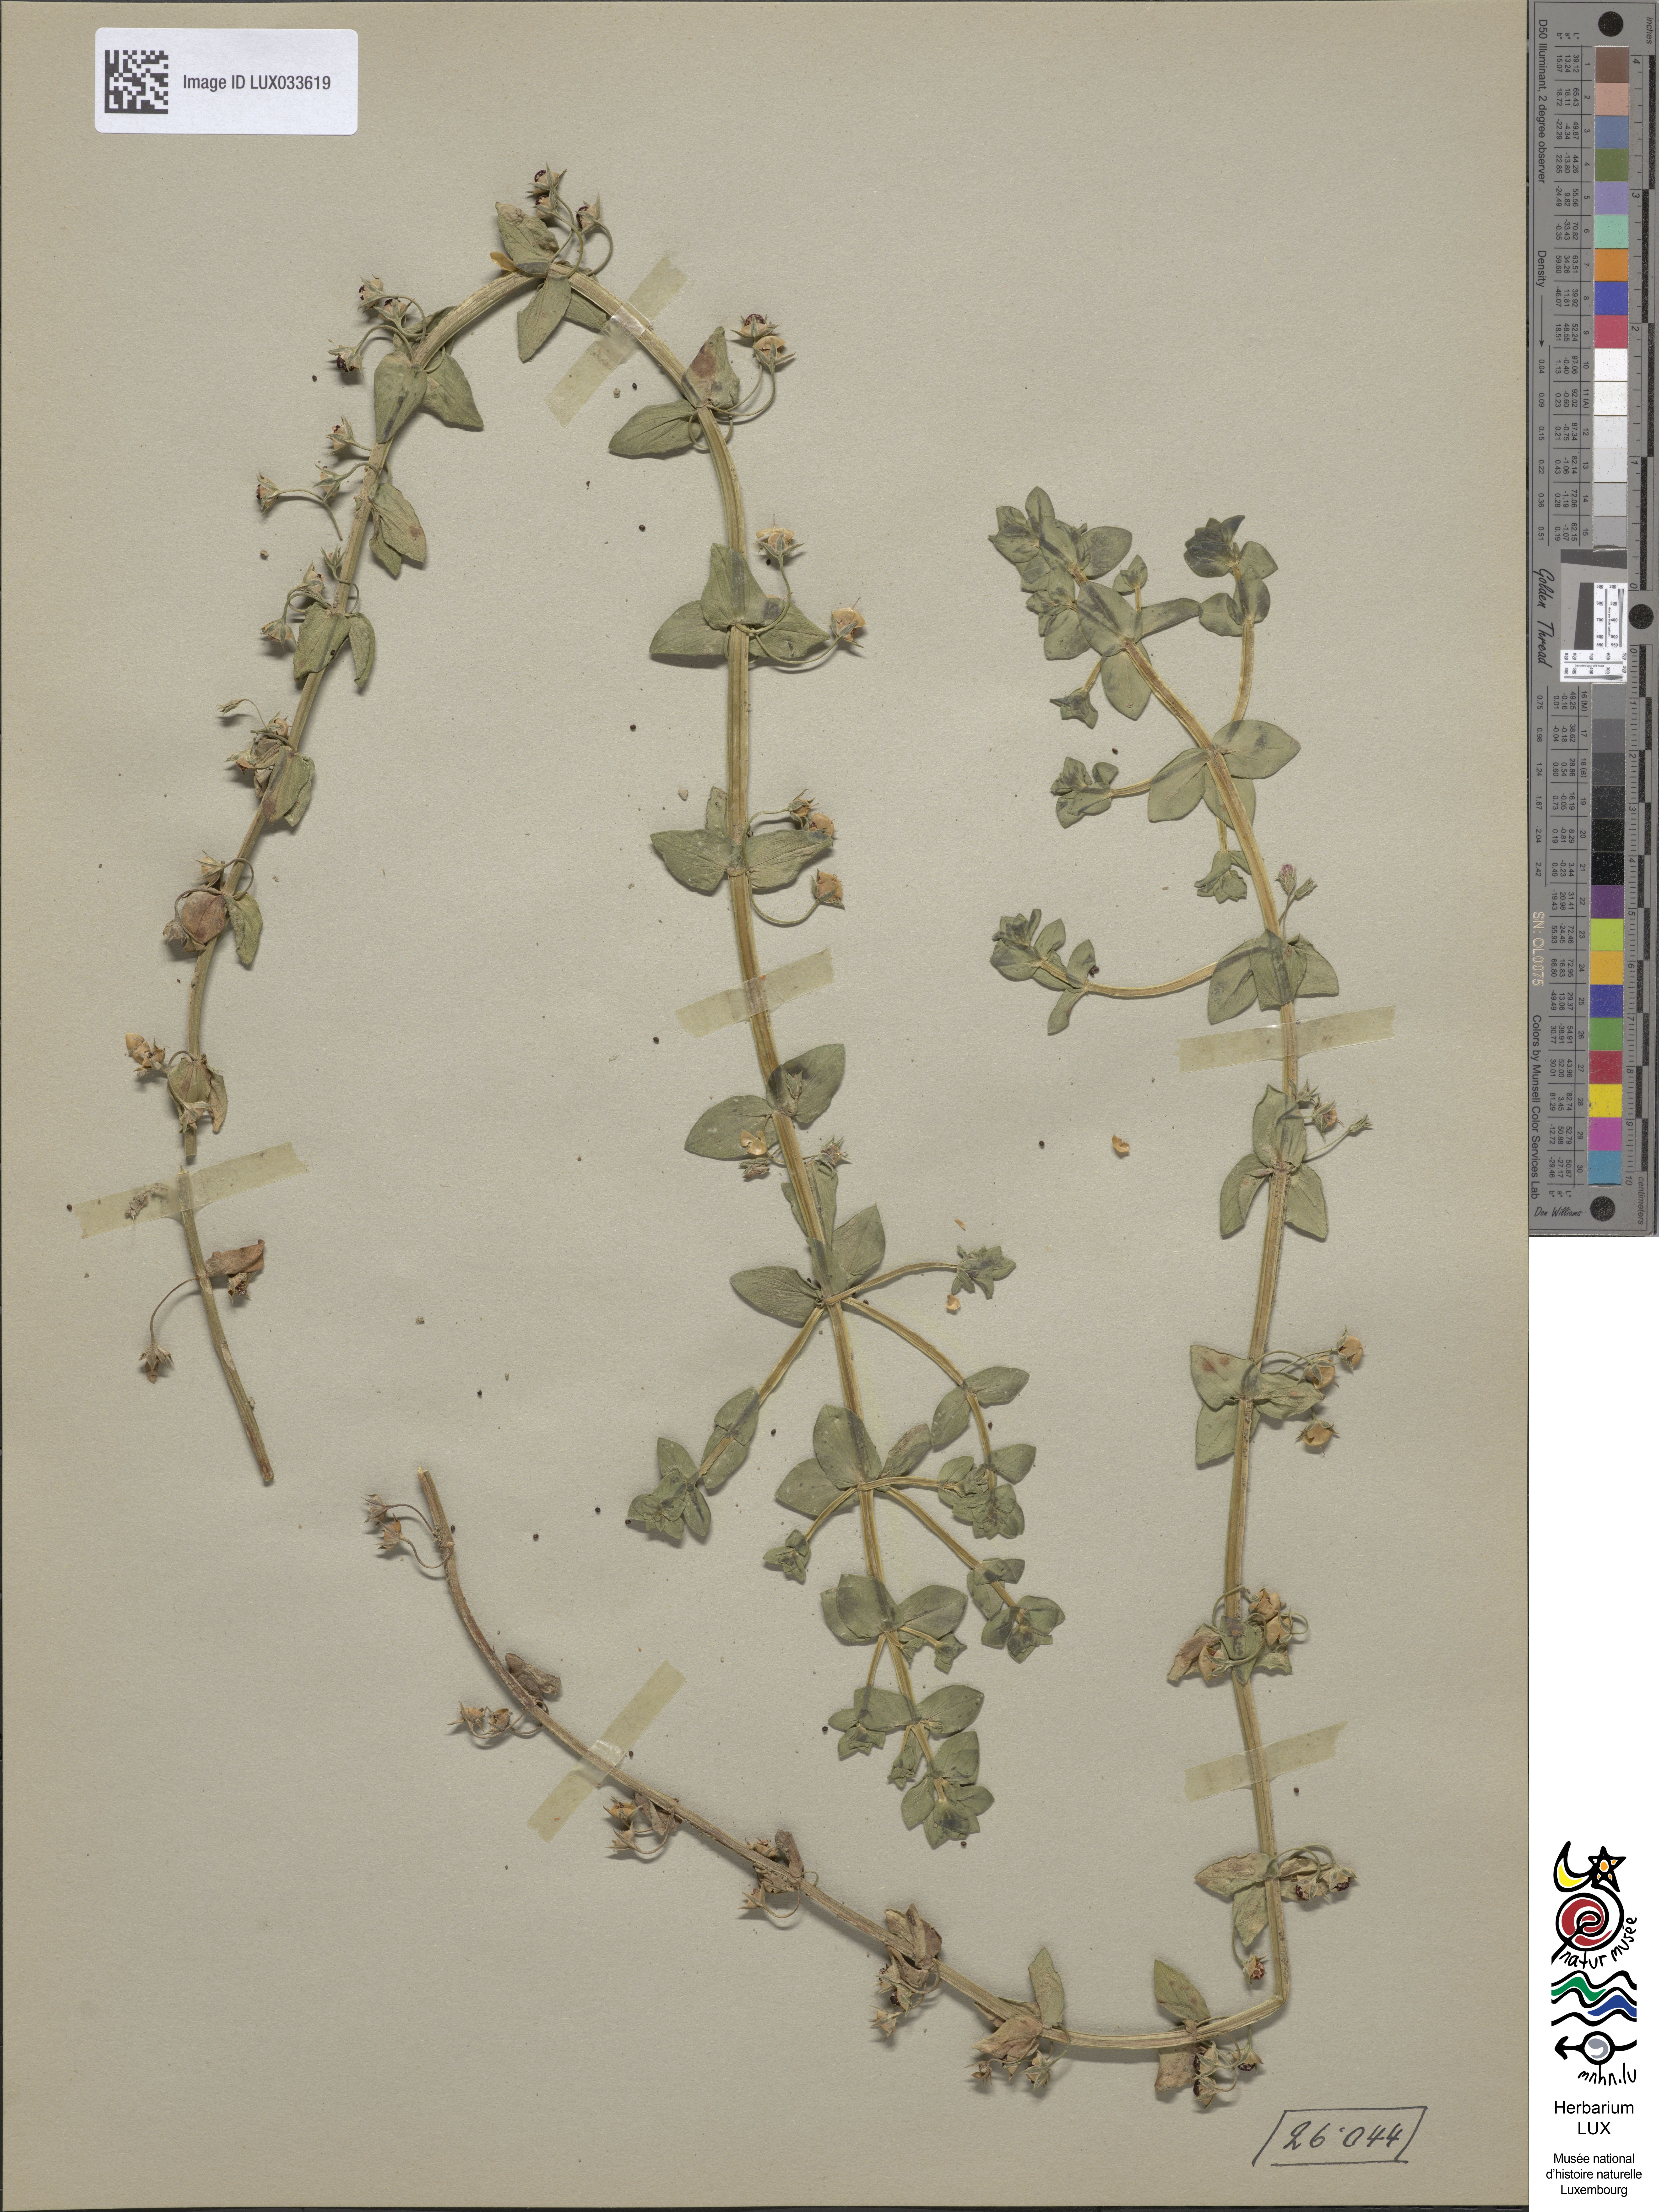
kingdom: Plantae
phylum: Tracheophyta
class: Magnoliopsida
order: Ericales
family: Primulaceae
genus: Lysimachia
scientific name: Lysimachia arvensis
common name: Scarlet pimpernel
